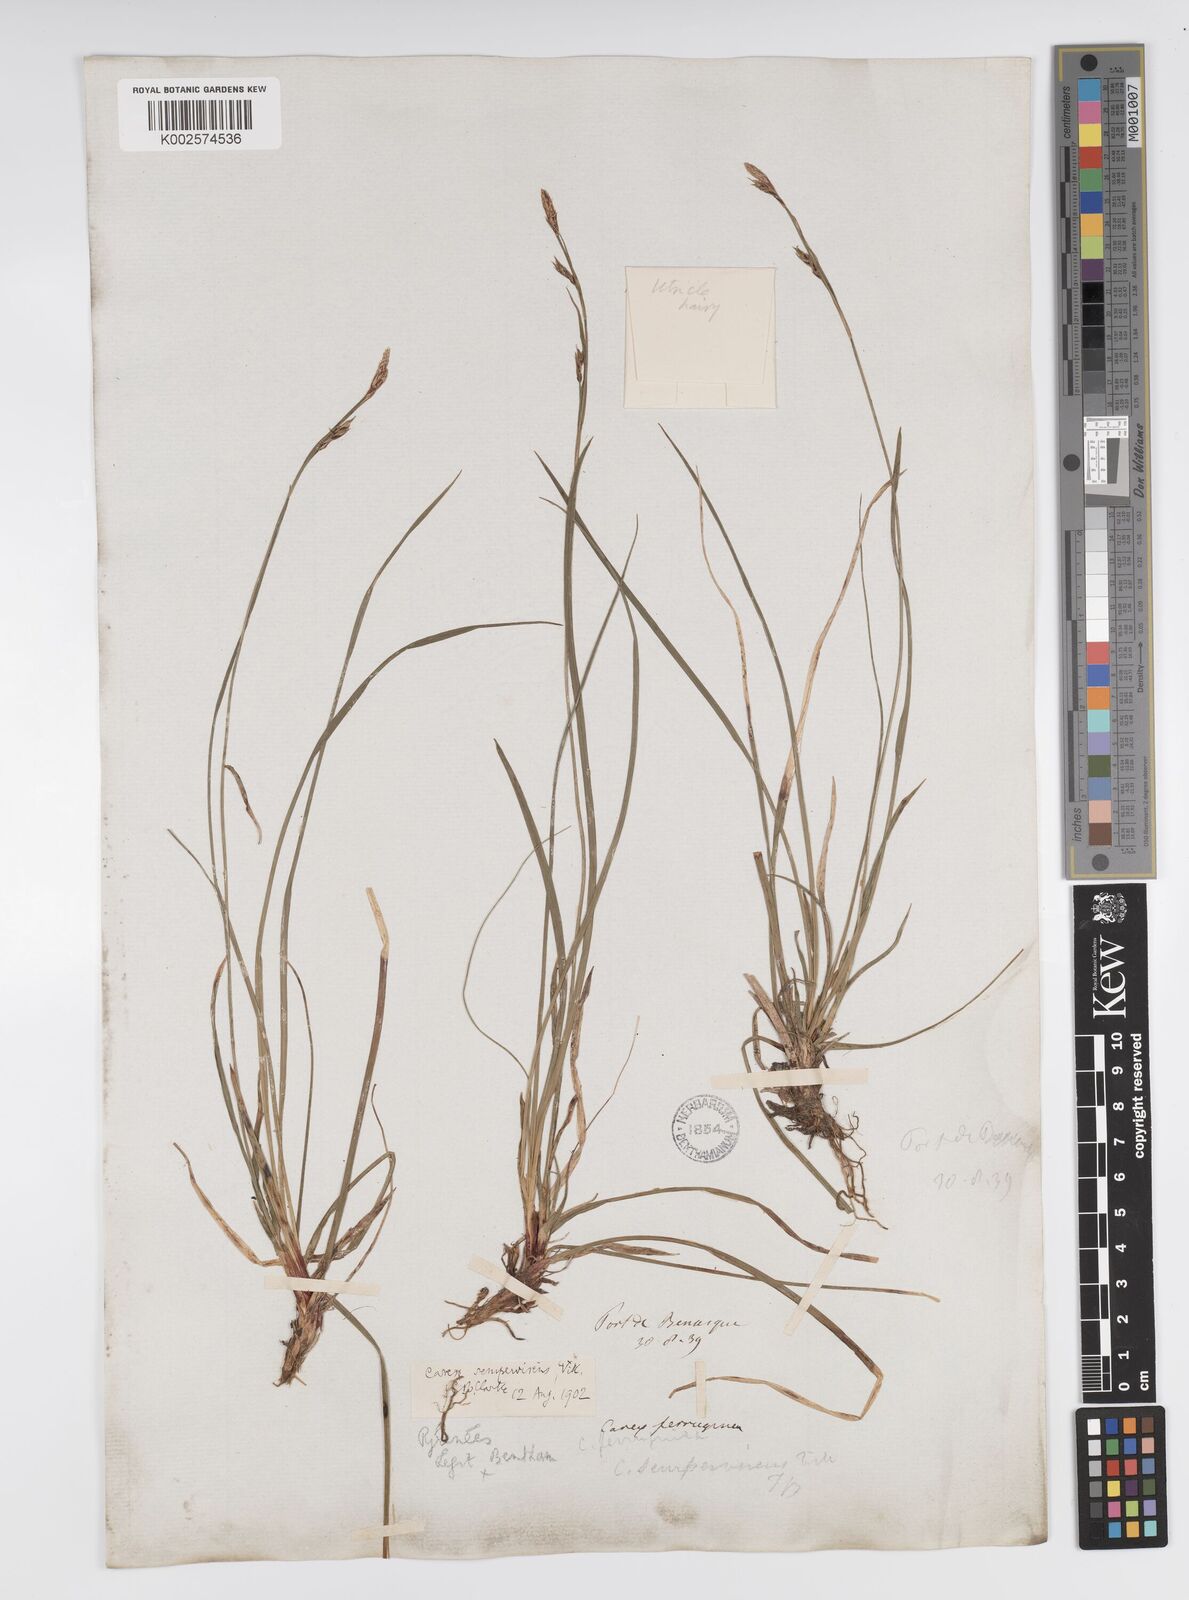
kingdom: Plantae
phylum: Tracheophyta
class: Liliopsida
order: Poales
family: Cyperaceae
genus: Carex
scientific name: Carex sempervirens
